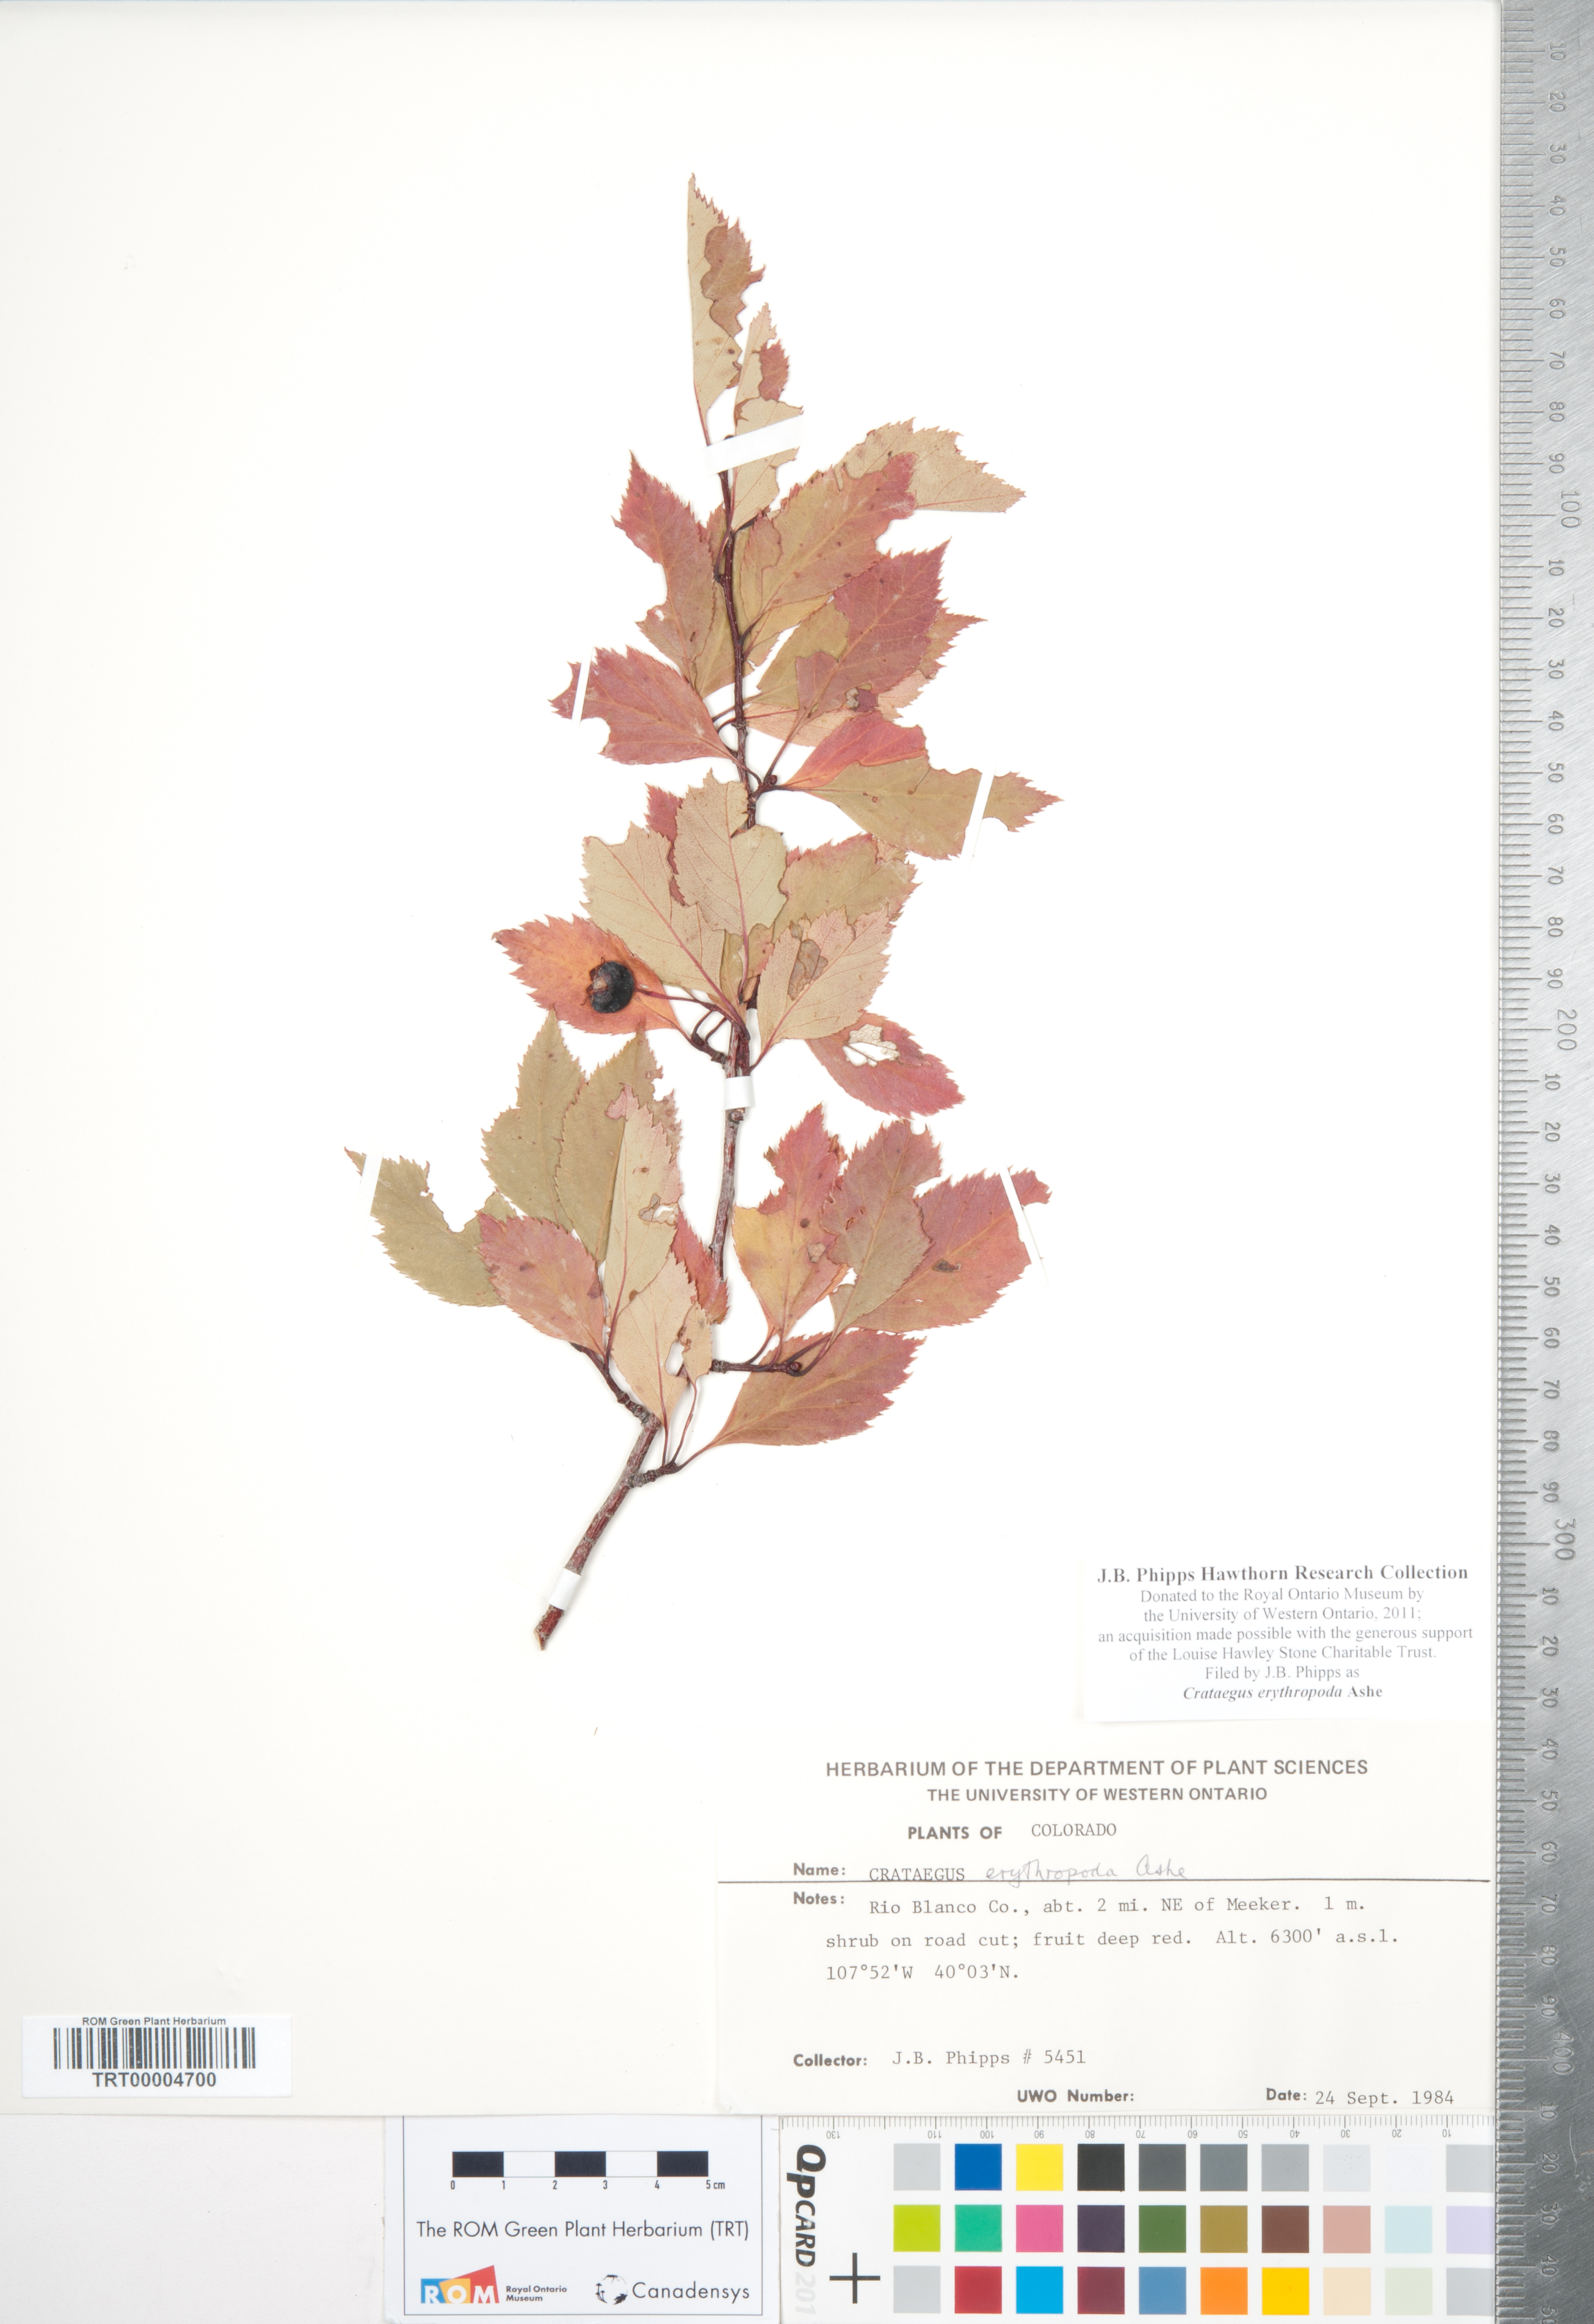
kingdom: Plantae
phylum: Tracheophyta
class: Magnoliopsida
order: Rosales
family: Rosaceae
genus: Crataegus
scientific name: Crataegus erythropoda
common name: Cerro hawthorn
